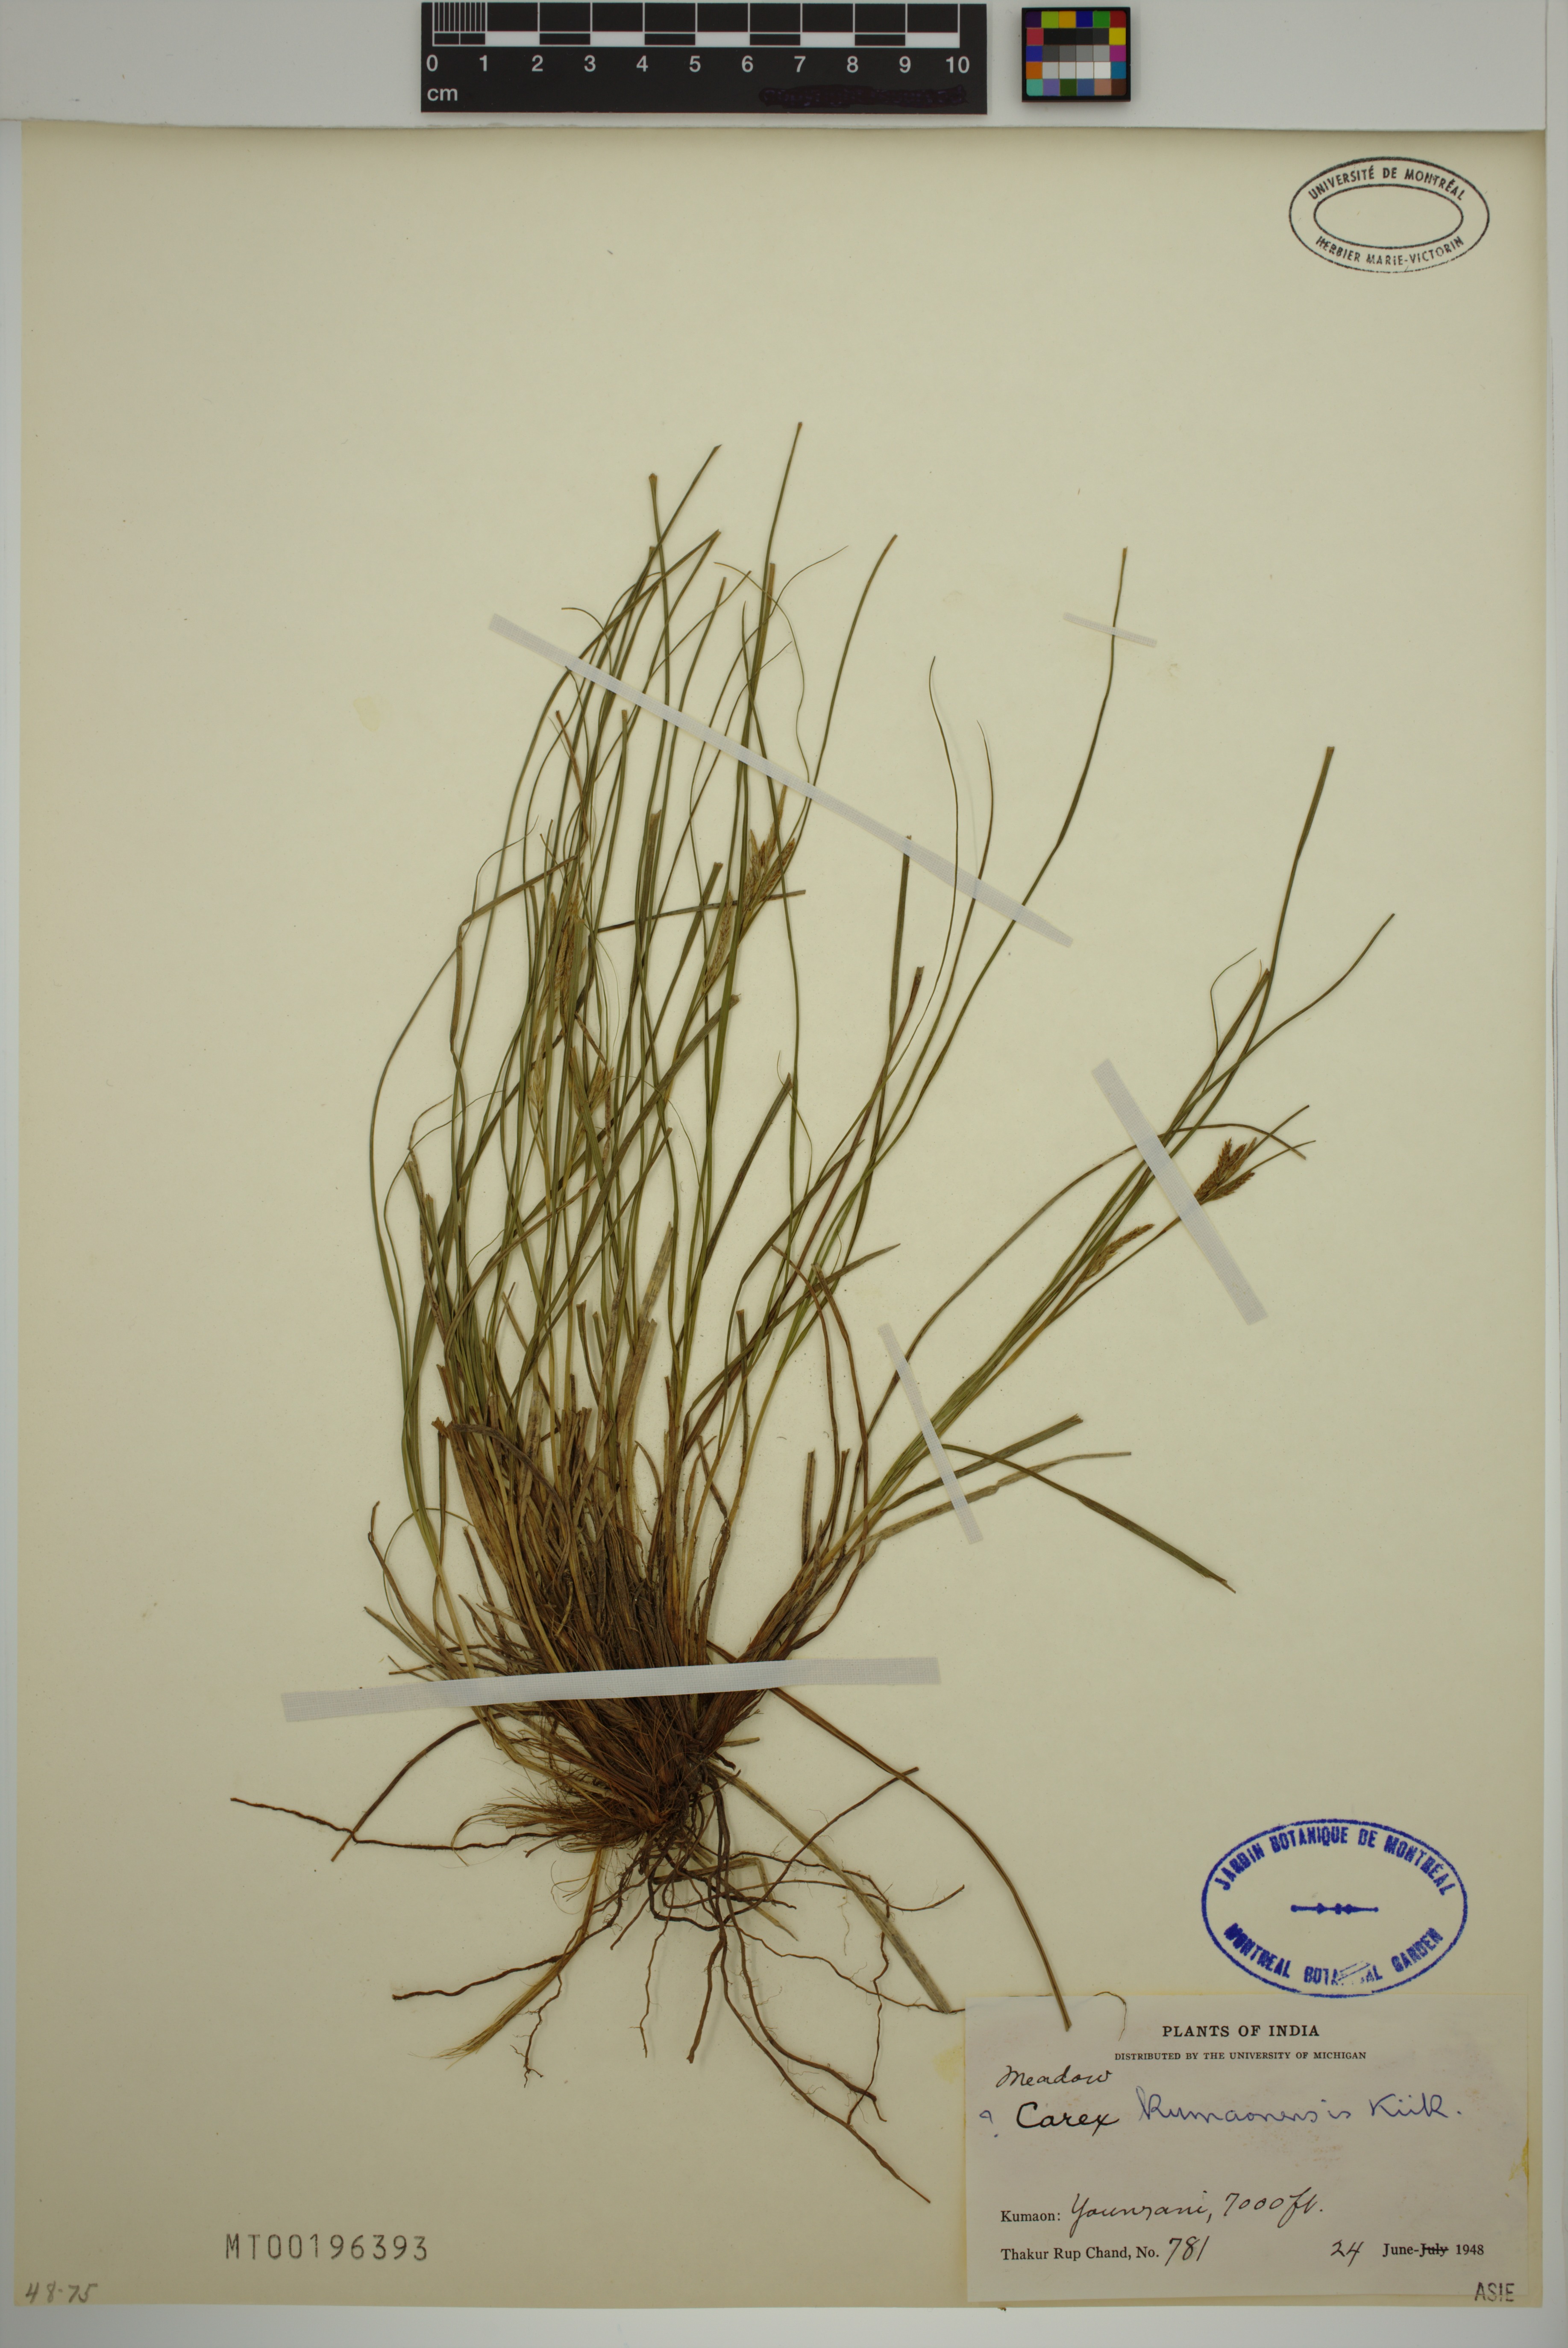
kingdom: Plantae
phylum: Tracheophyta
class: Liliopsida
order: Poales
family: Cyperaceae
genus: Carex
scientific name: Carex kumaonensis
